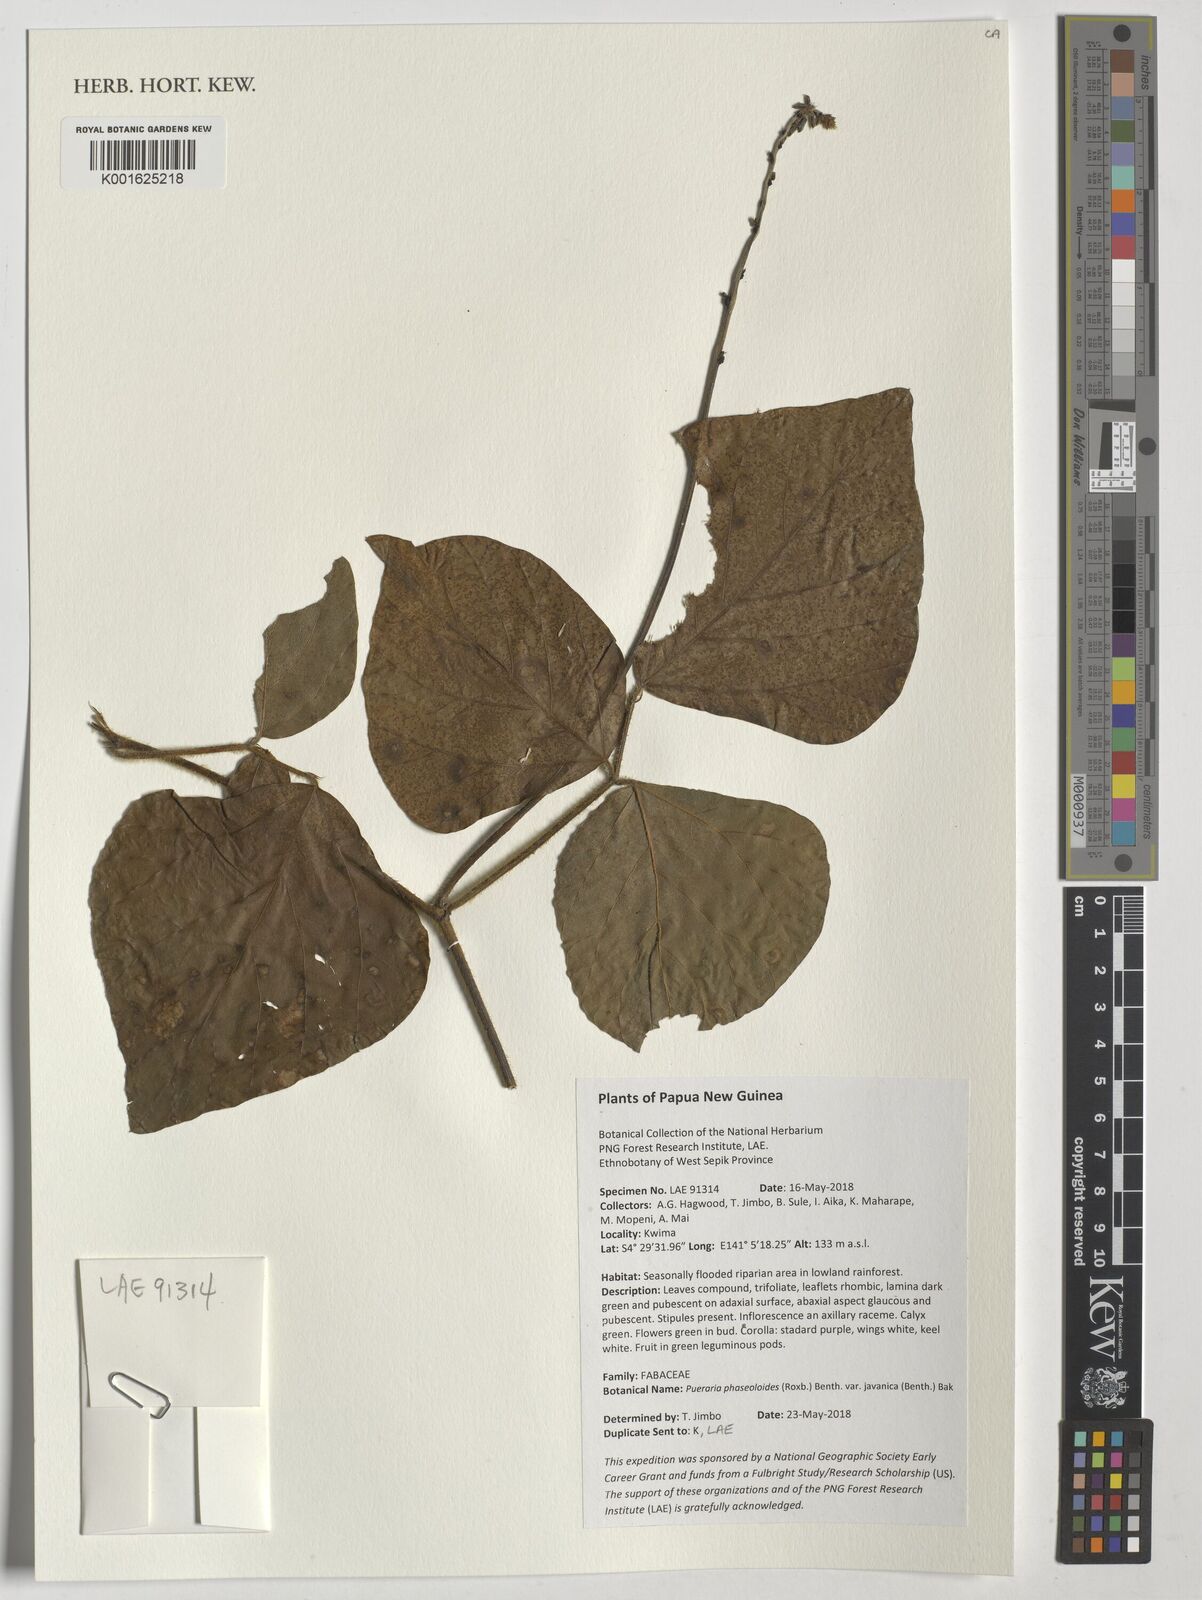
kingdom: Plantae
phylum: Tracheophyta
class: Magnoliopsida
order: Fabales
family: Fabaceae
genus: Neustanthus
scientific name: Neustanthus phaseoloides
